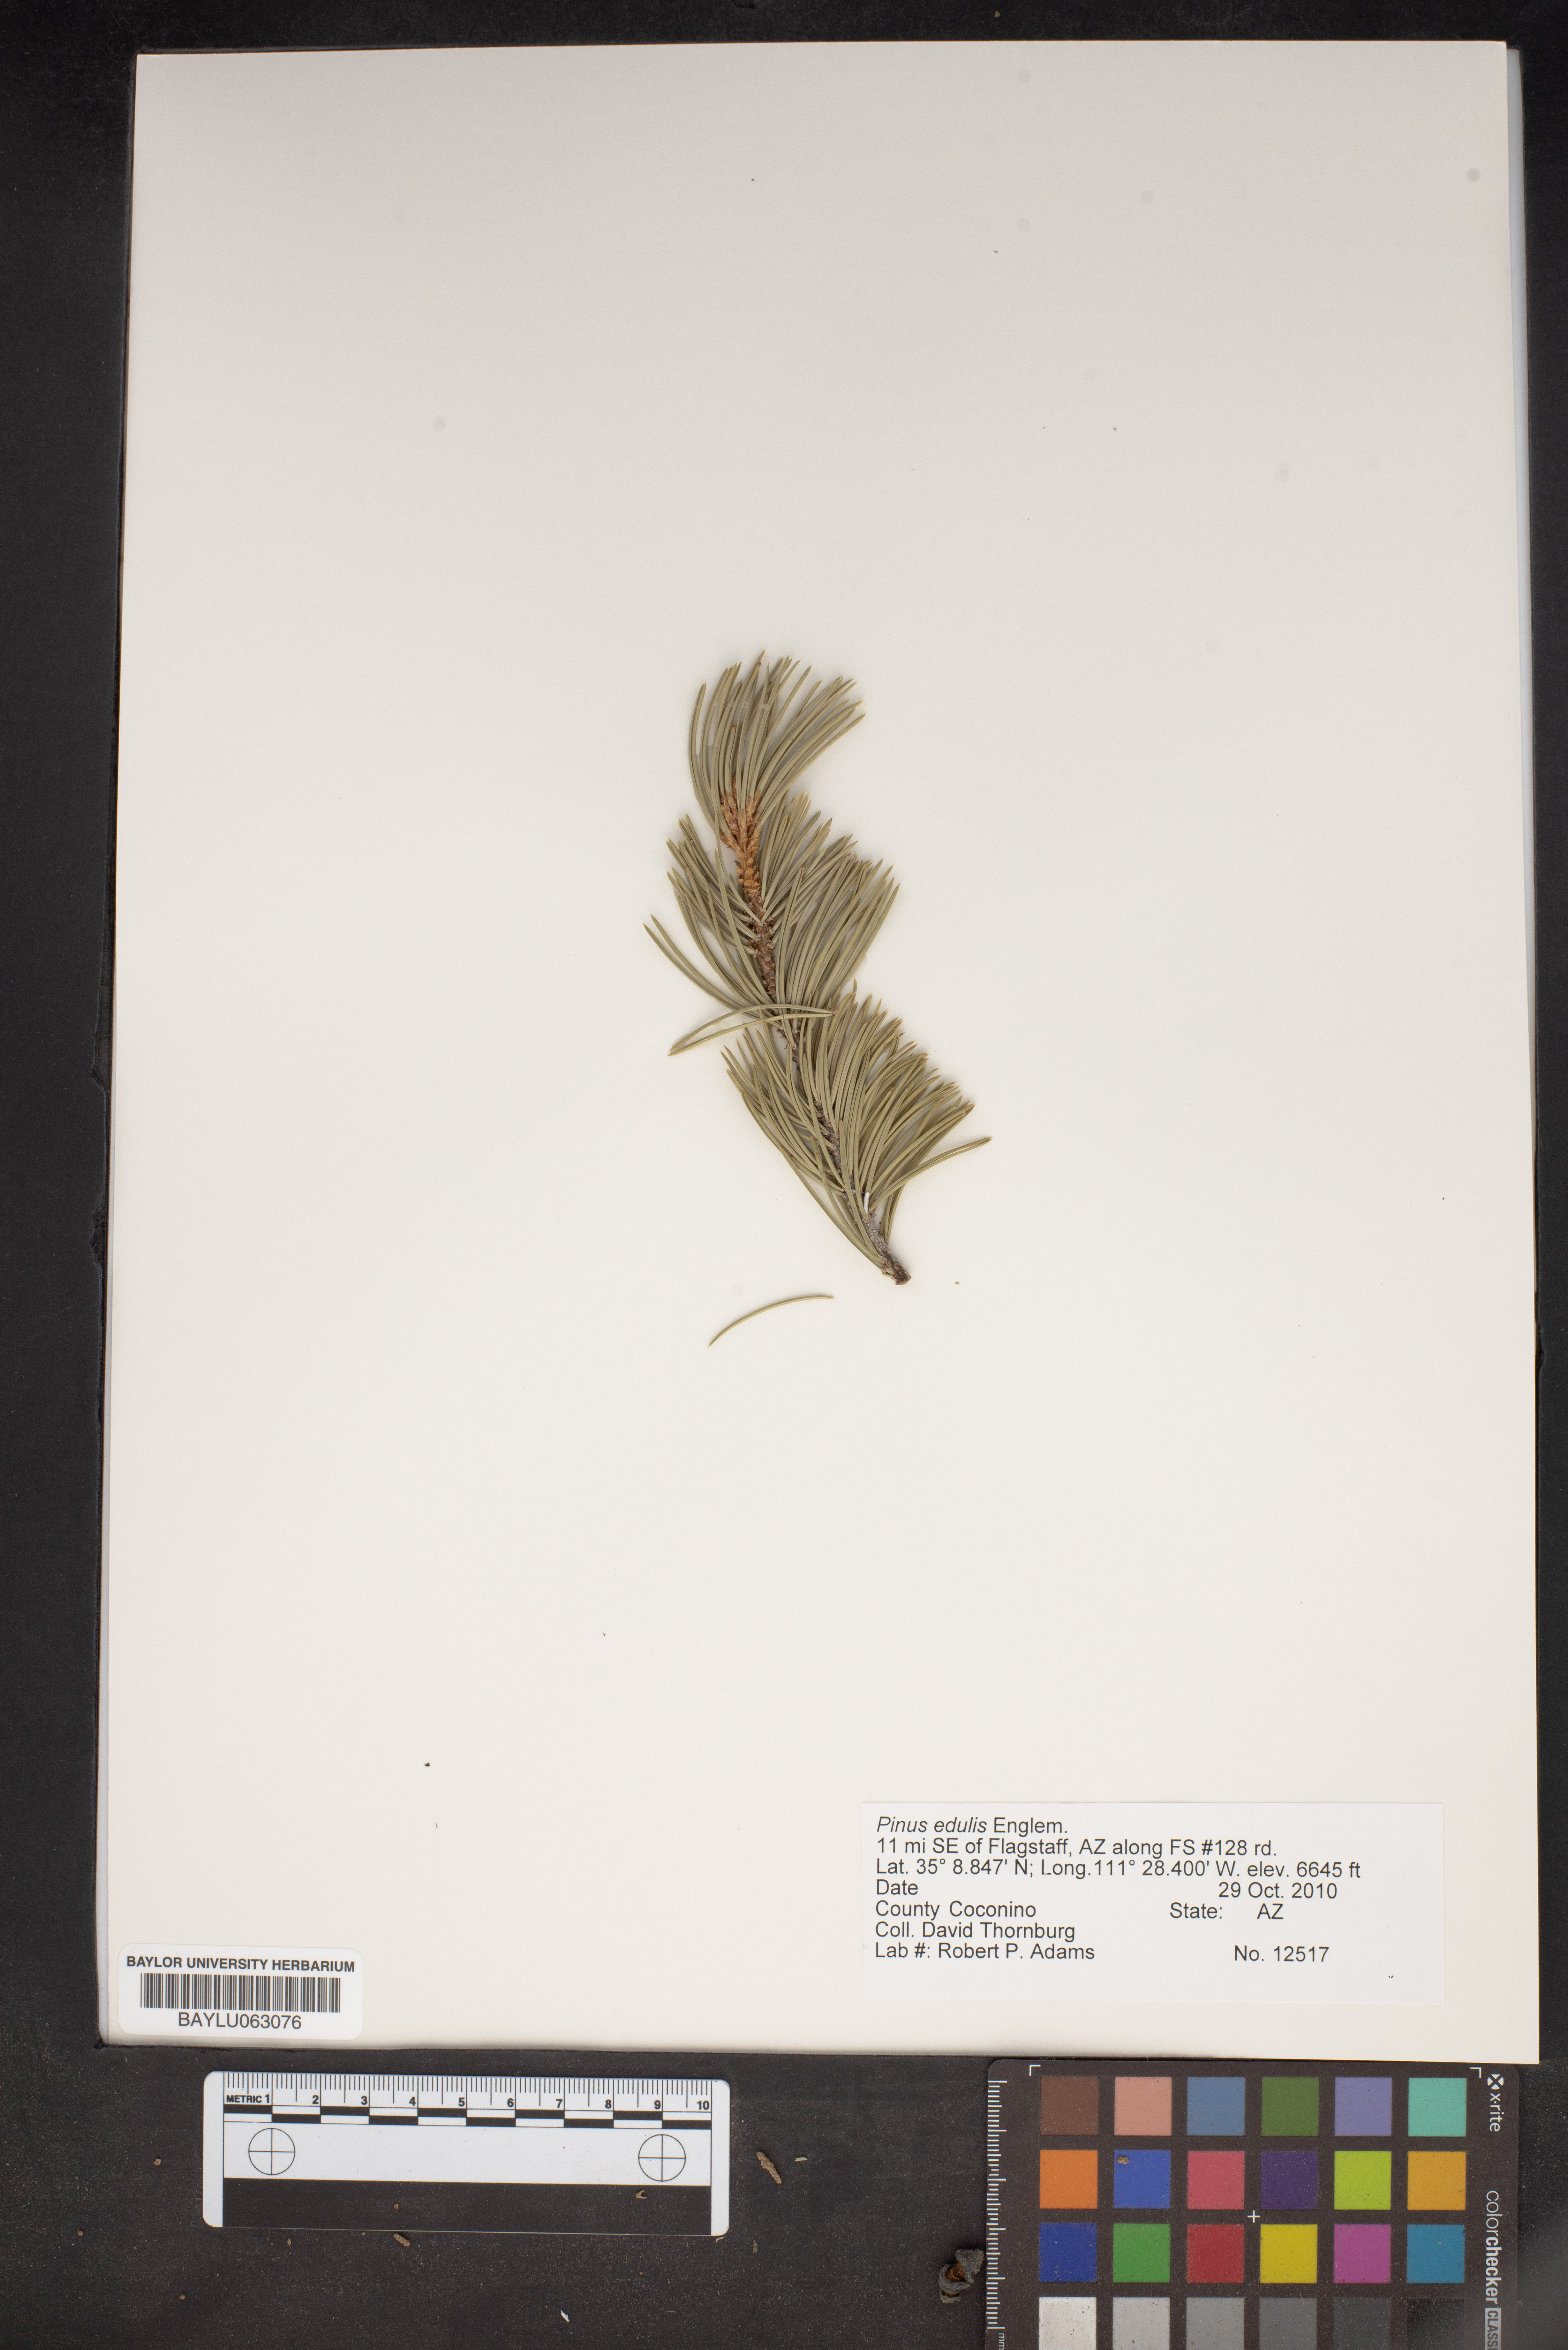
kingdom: Plantae
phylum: Tracheophyta
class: Pinopsida
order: Pinales
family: Pinaceae
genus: Pinus
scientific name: Pinus edulis
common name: Colorado pinyon
